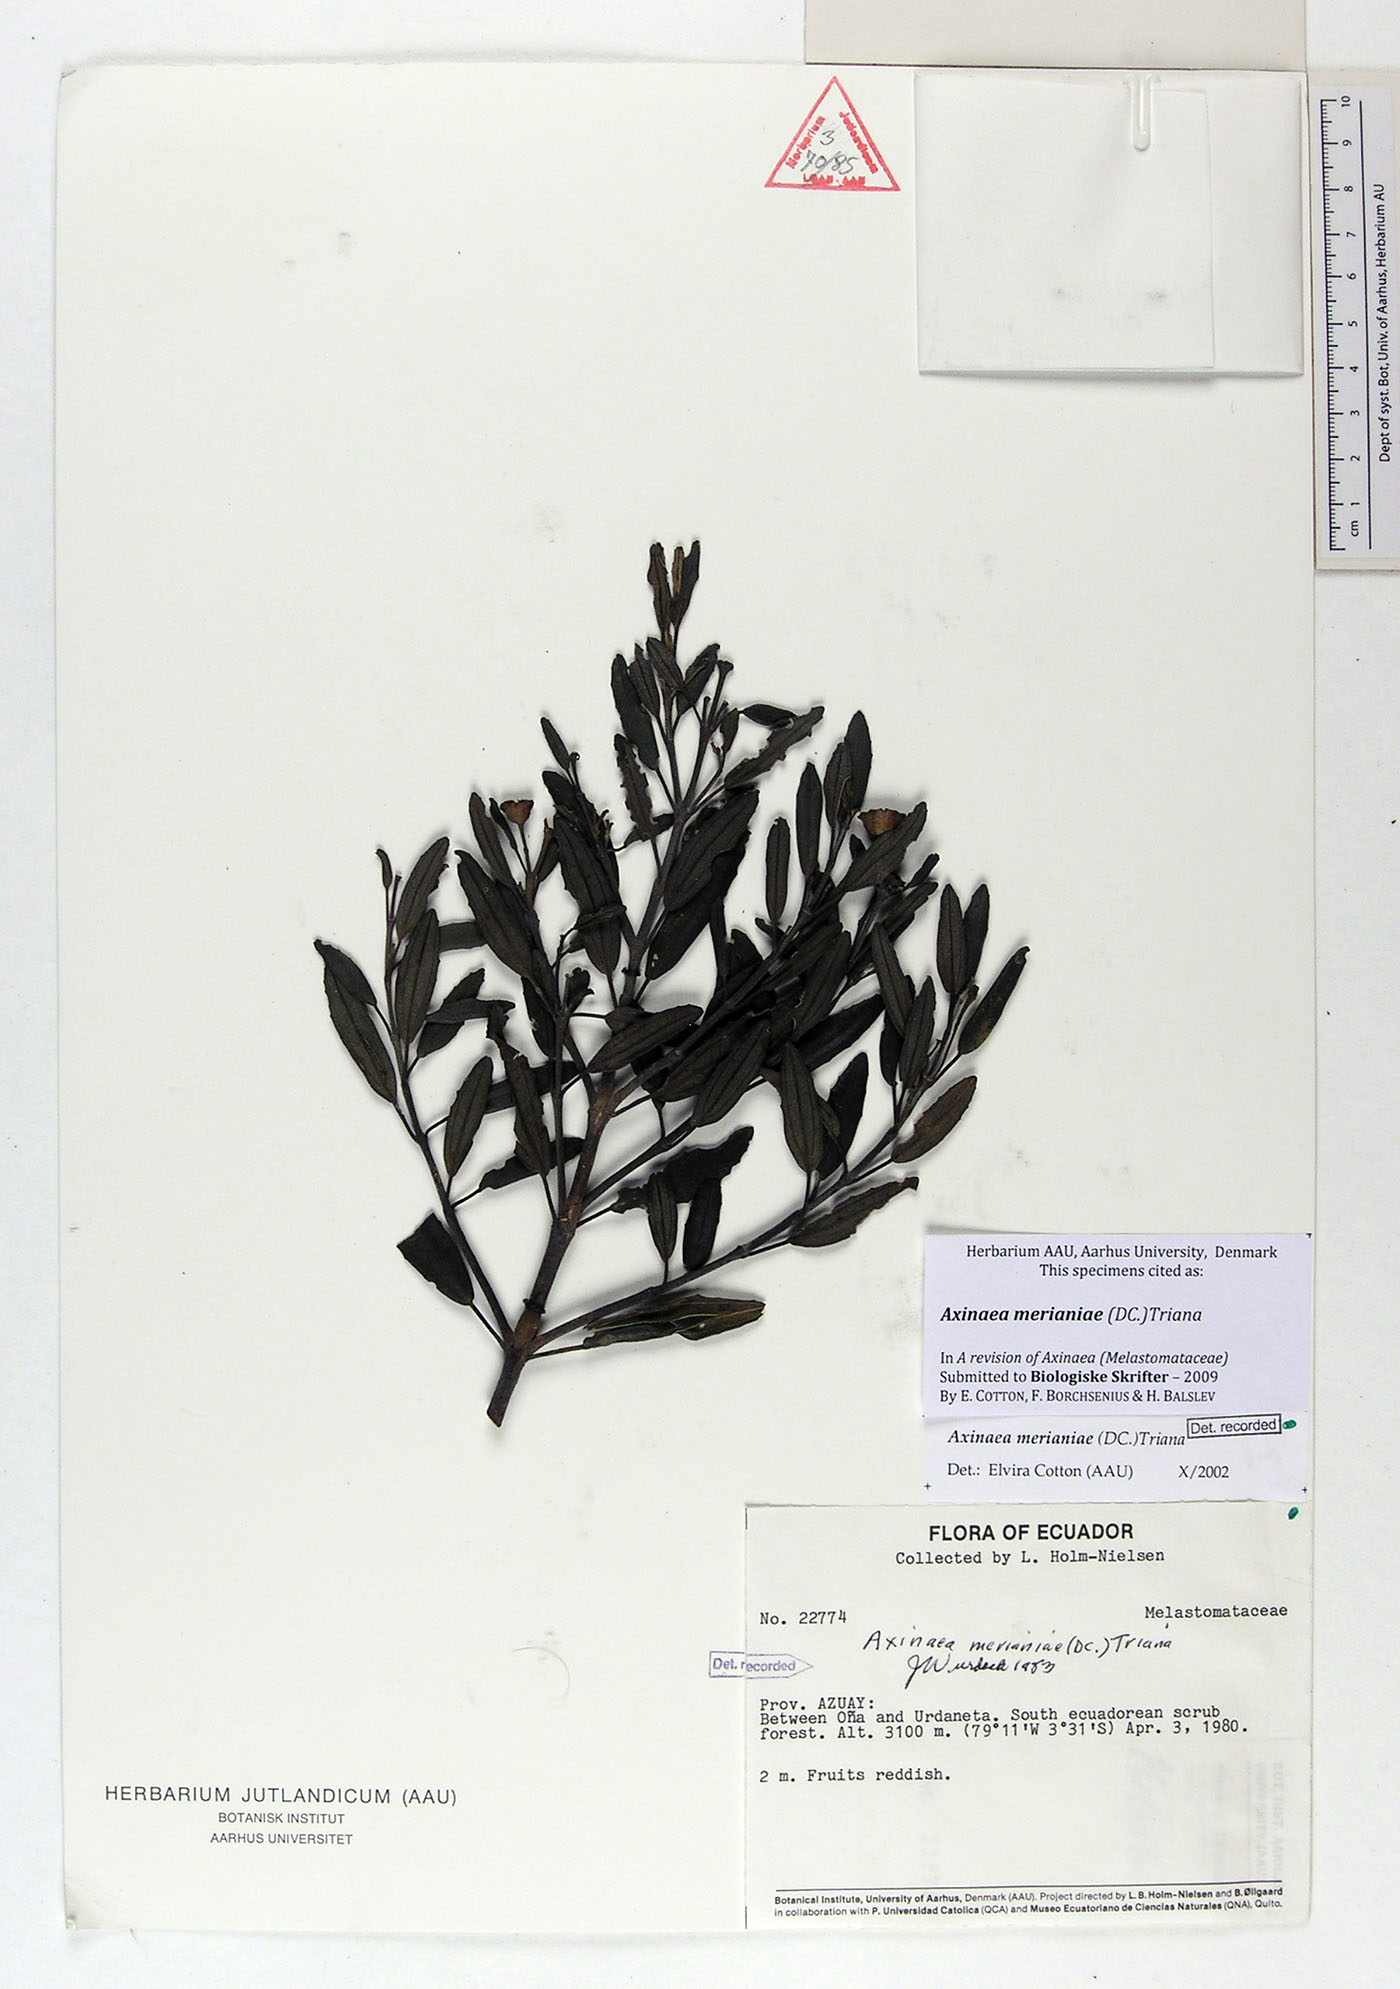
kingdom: Plantae
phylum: Tracheophyta
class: Magnoliopsida
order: Myrtales
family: Melastomataceae
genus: Axinaea
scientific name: Axinaea merianiae
